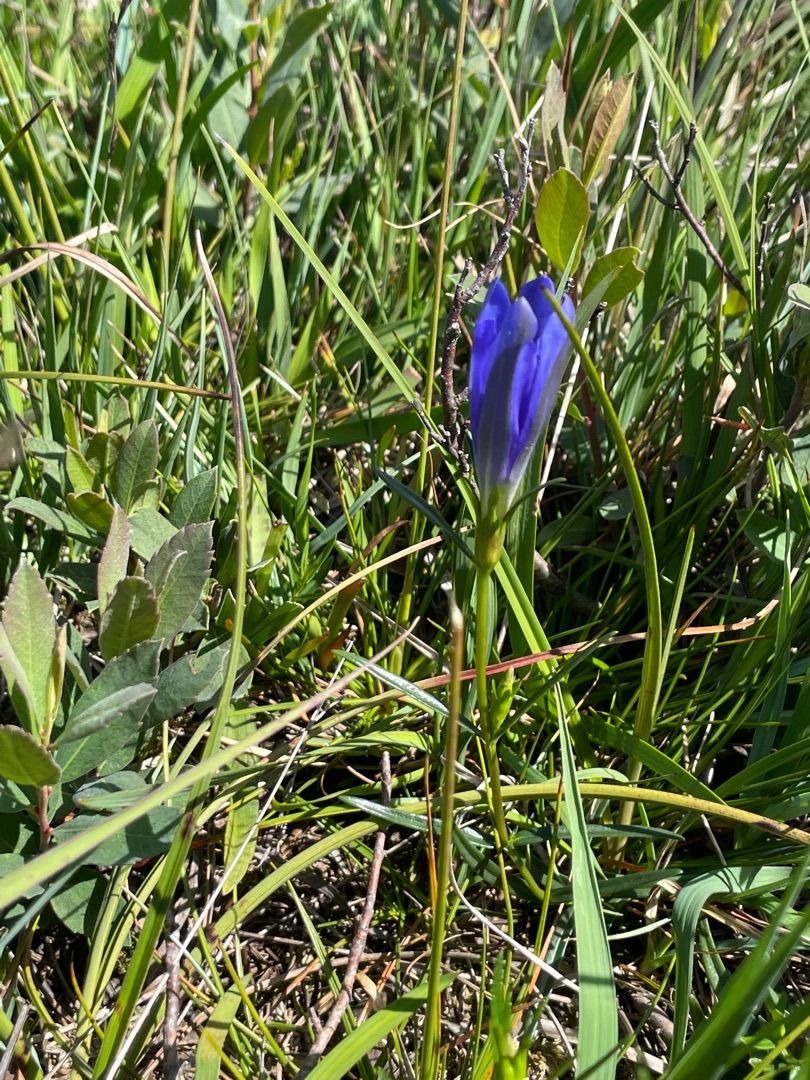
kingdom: Plantae
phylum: Tracheophyta
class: Magnoliopsida
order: Gentianales
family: Gentianaceae
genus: Gentiana
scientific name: Gentiana pneumonanthe
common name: Klokke-ensian
